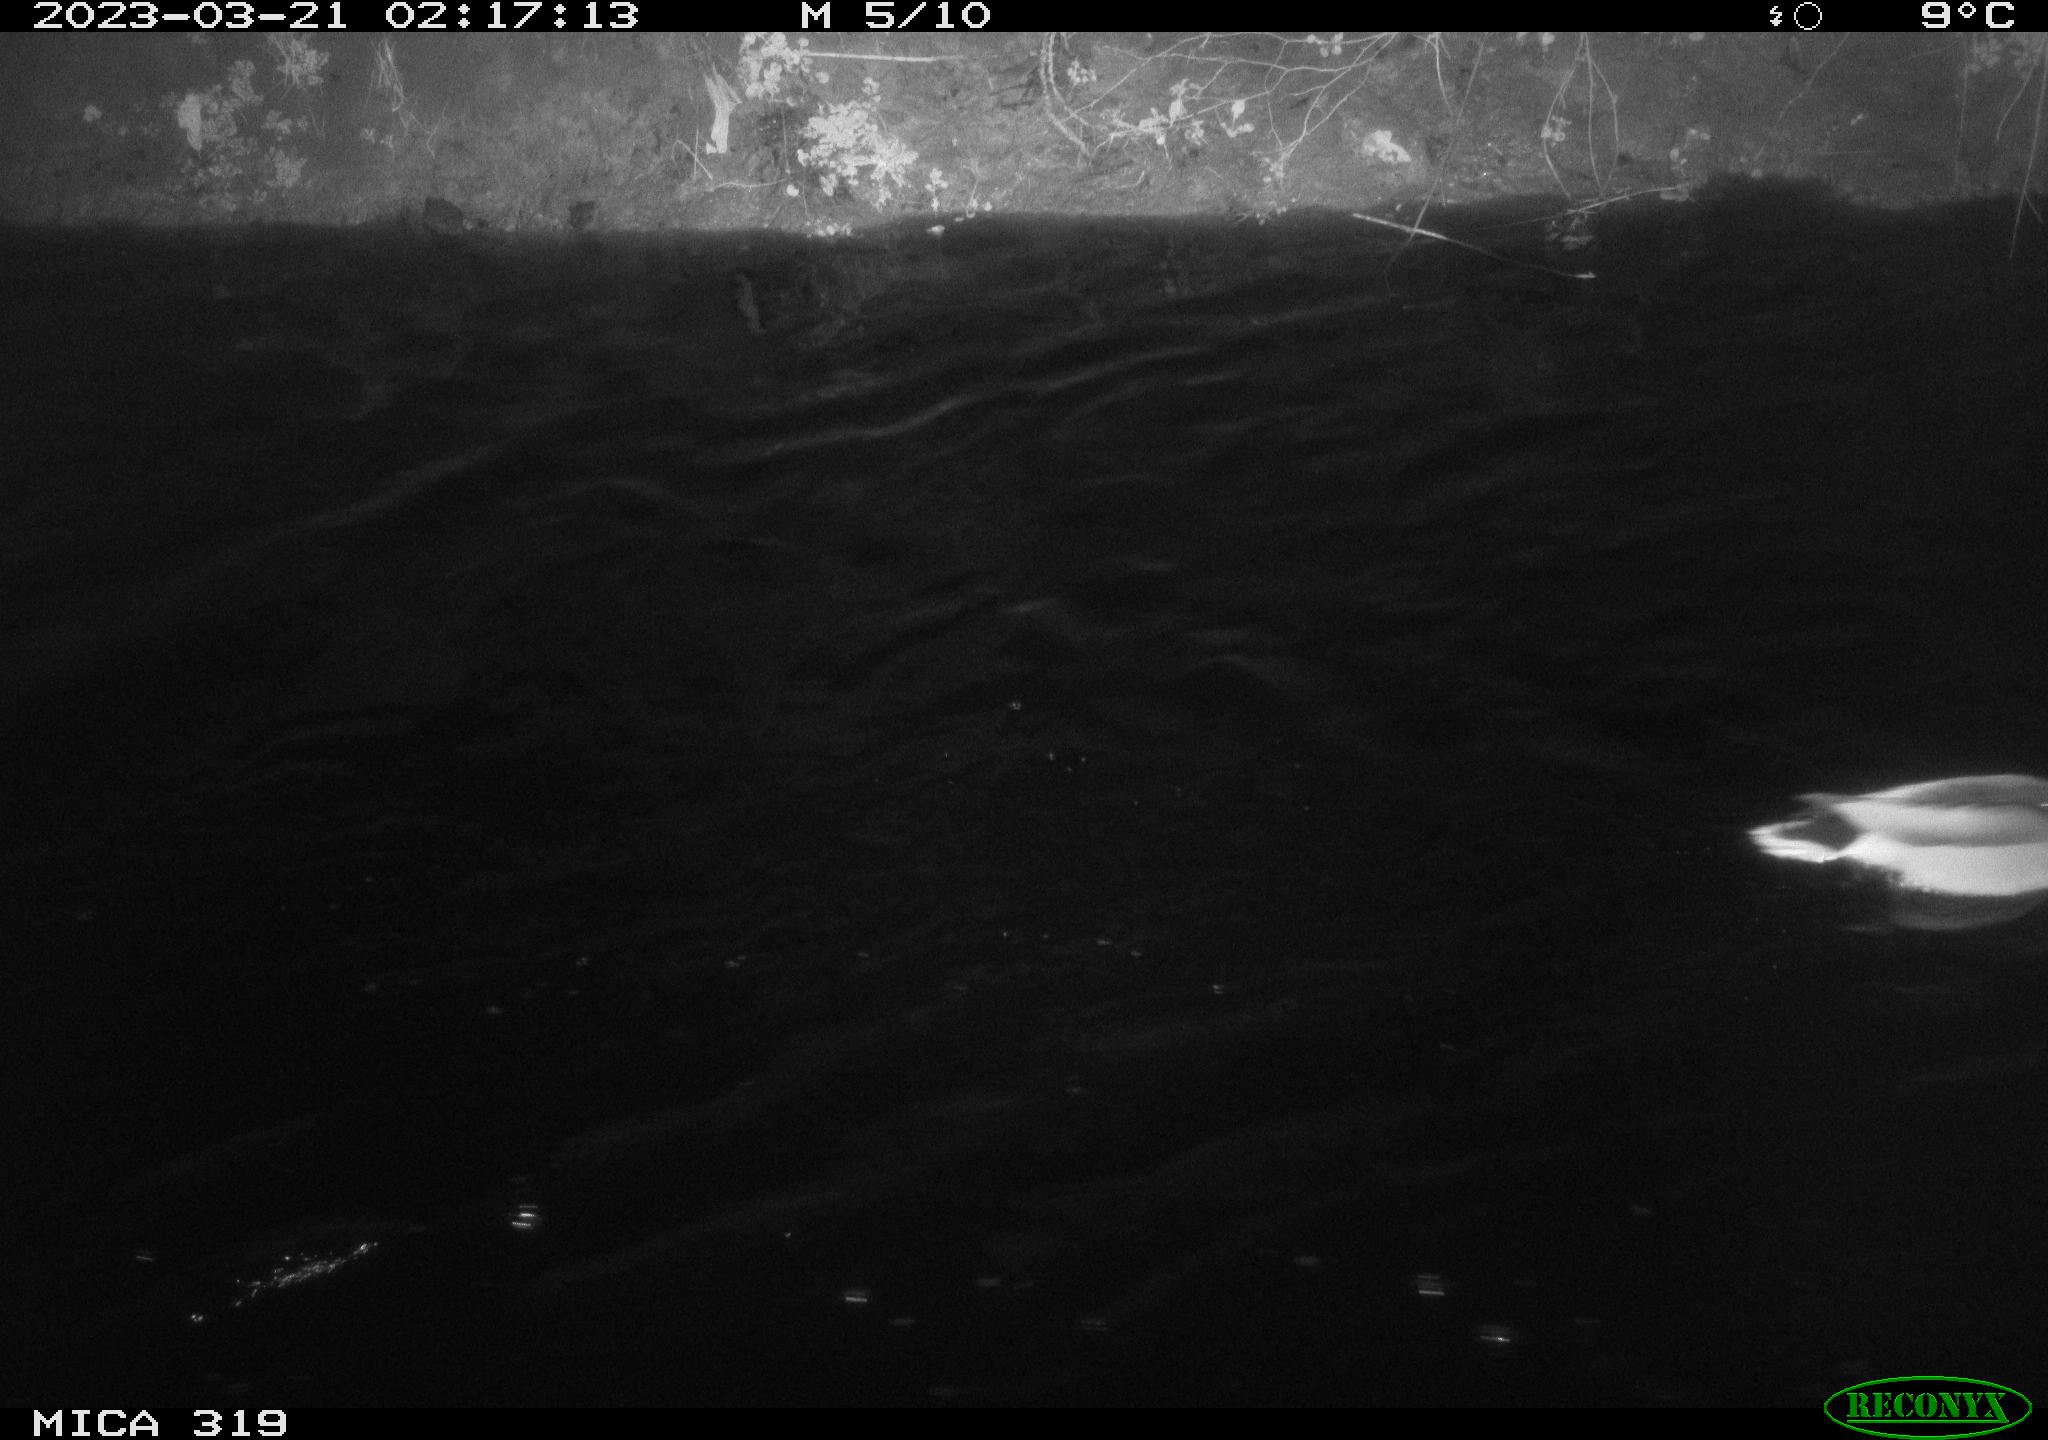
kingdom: Animalia
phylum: Chordata
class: Aves
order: Anseriformes
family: Anatidae
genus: Anas
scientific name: Anas
